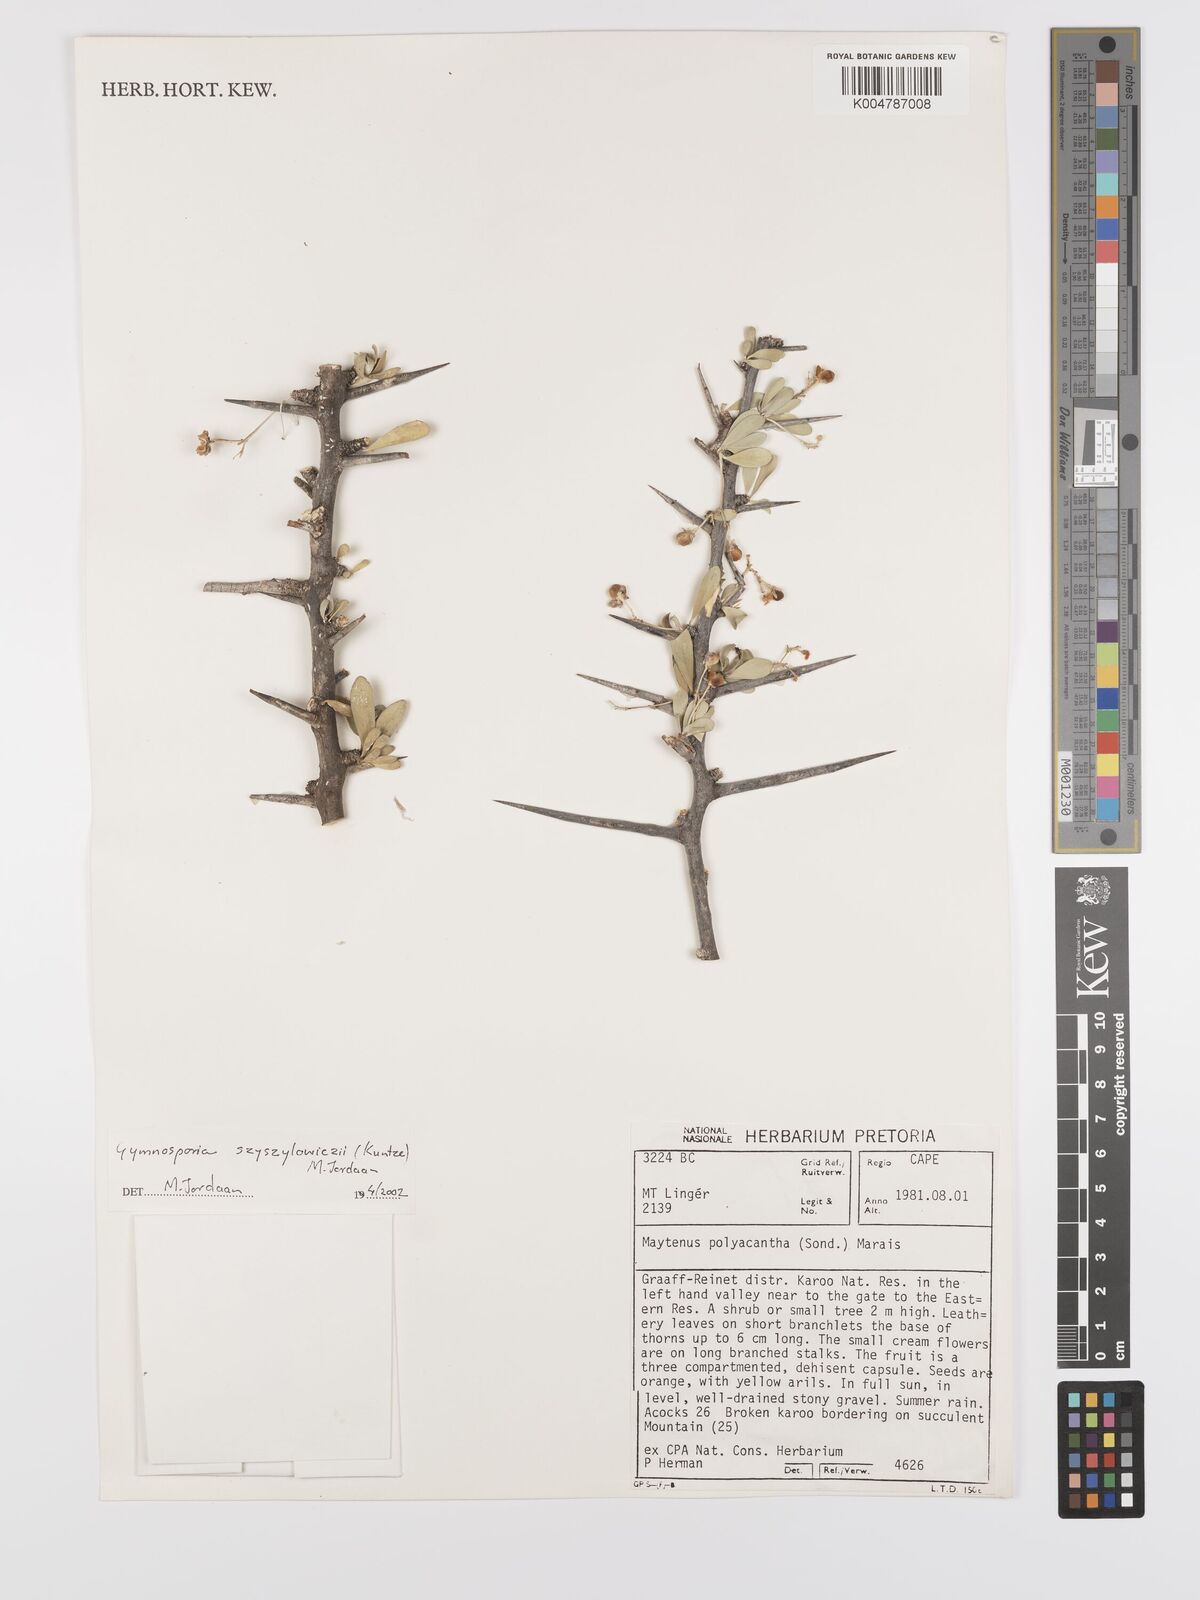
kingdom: Plantae
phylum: Tracheophyta
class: Magnoliopsida
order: Celastrales
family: Celastraceae
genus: Gymnosporia
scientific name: Gymnosporia
